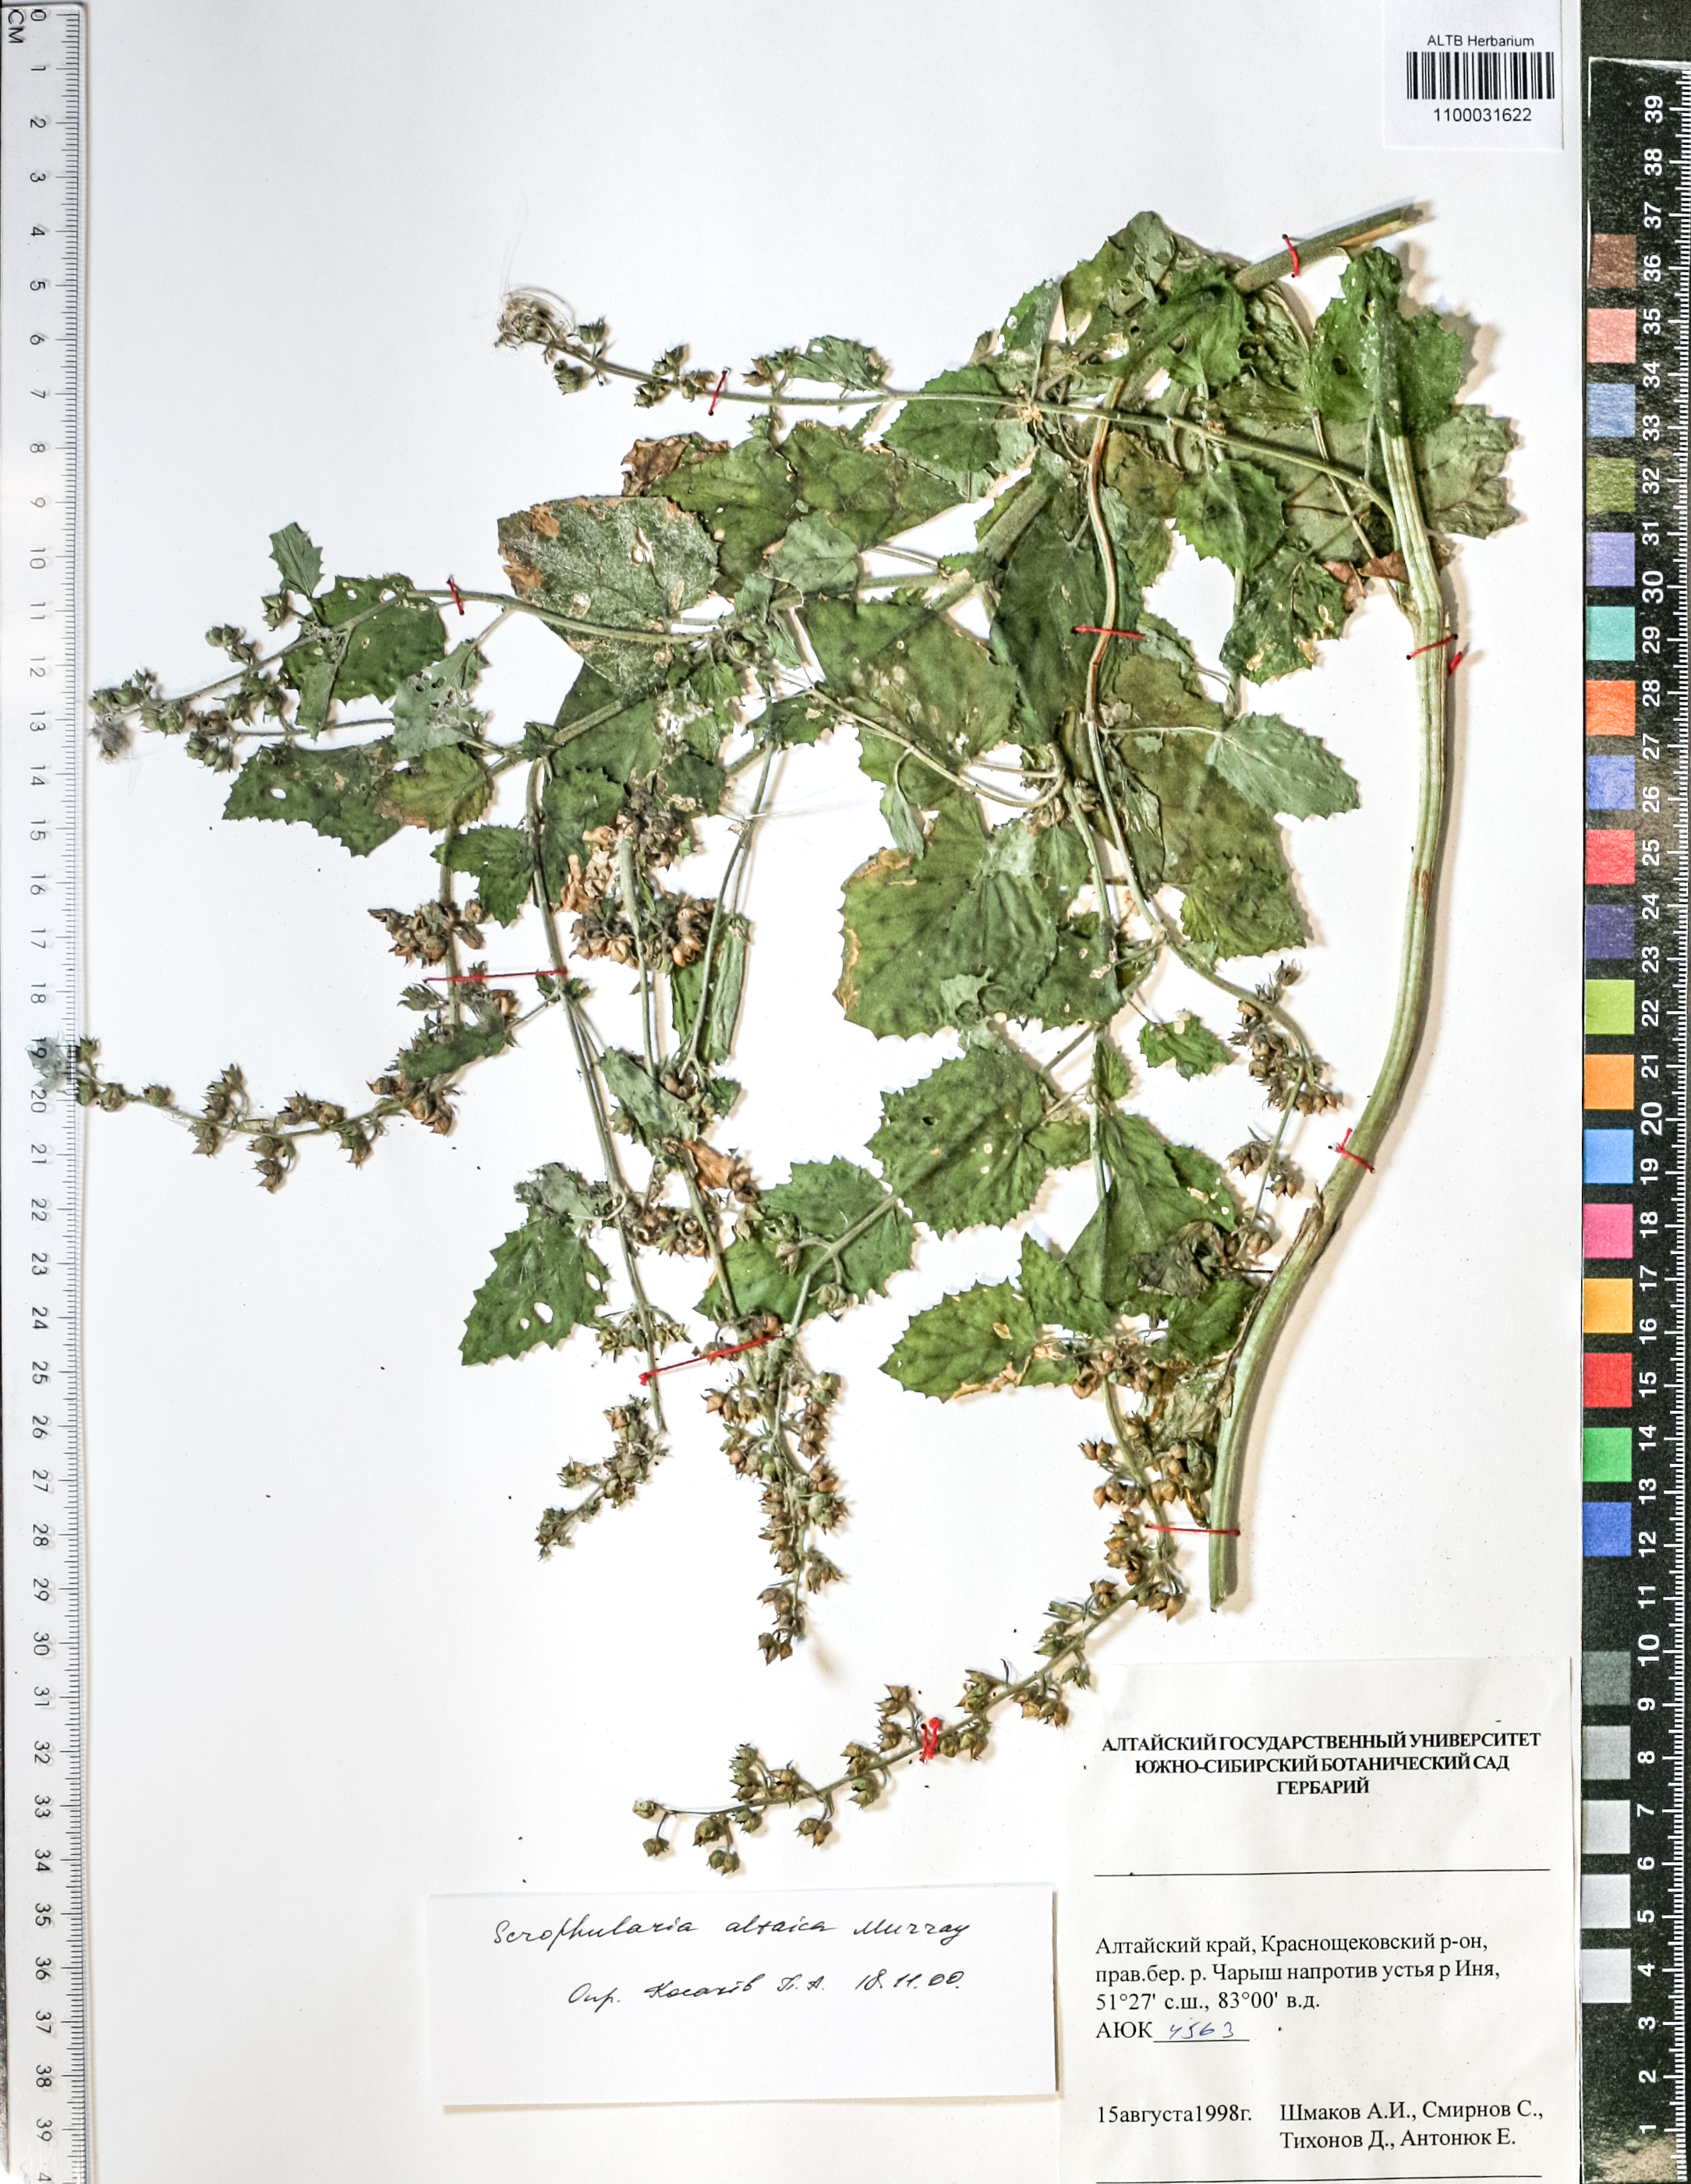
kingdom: Plantae
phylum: Tracheophyta
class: Magnoliopsida
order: Lamiales
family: Scrophulariaceae
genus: Scrophularia
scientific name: Scrophularia altaica
